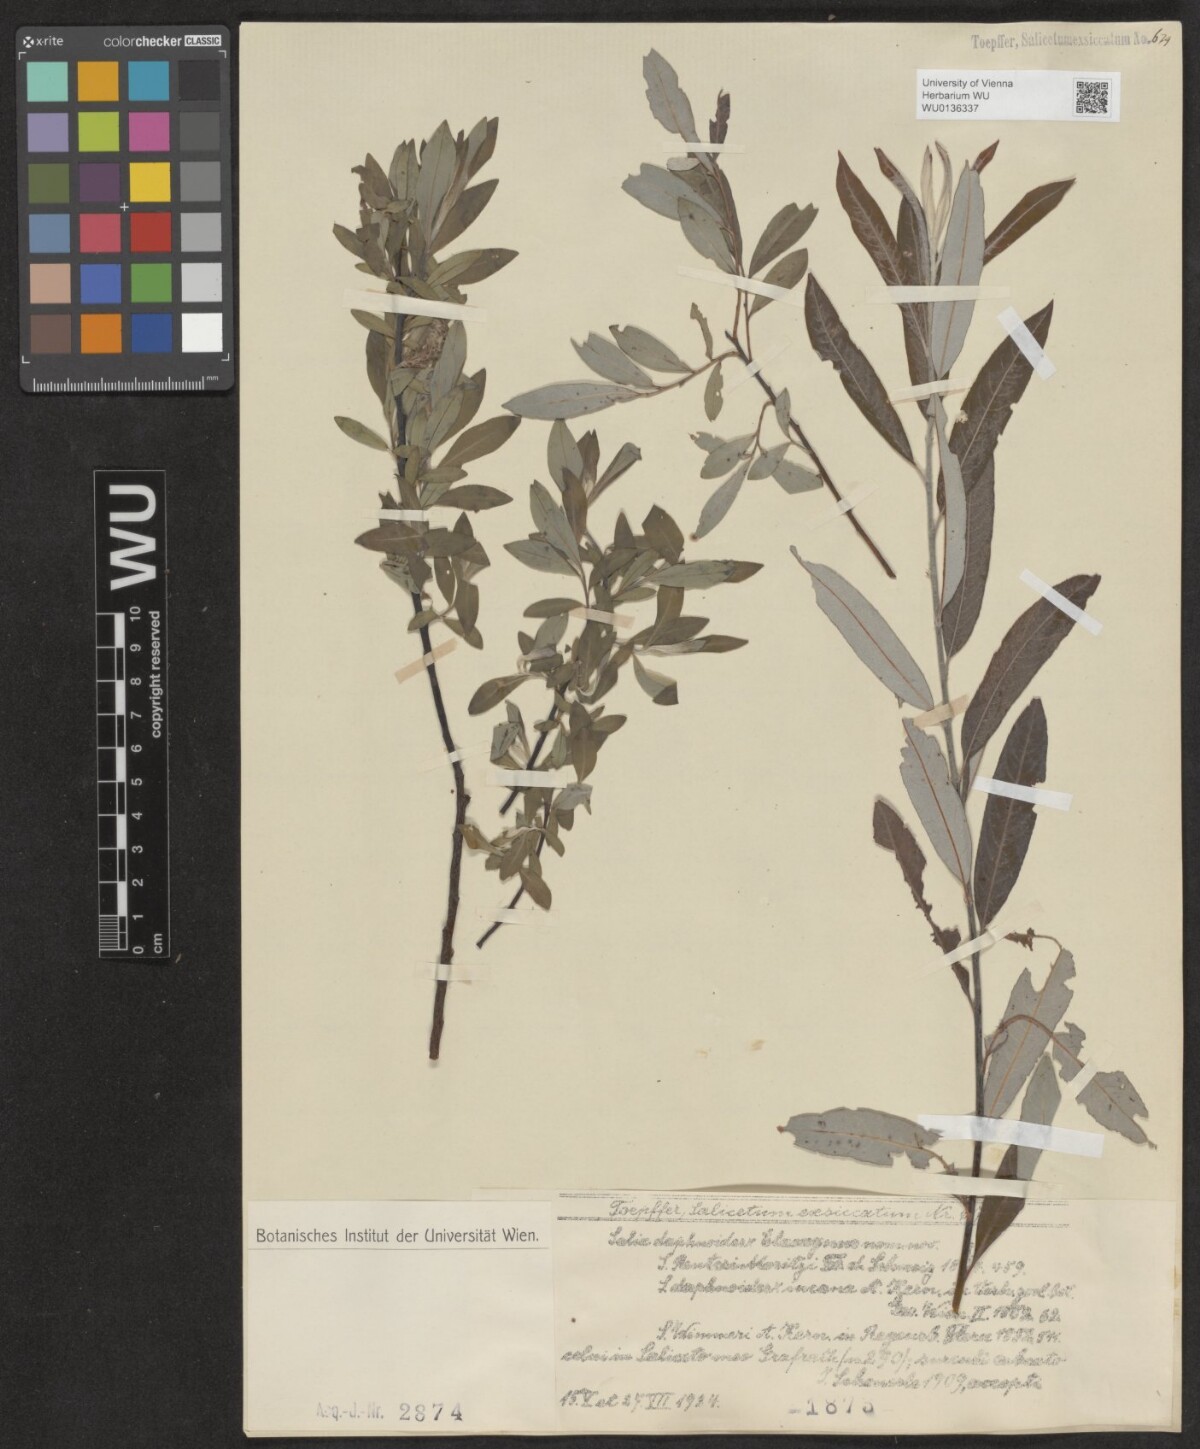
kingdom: Plantae
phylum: Tracheophyta
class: Magnoliopsida
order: Malpighiales
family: Salicaceae
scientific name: Salicaceae
